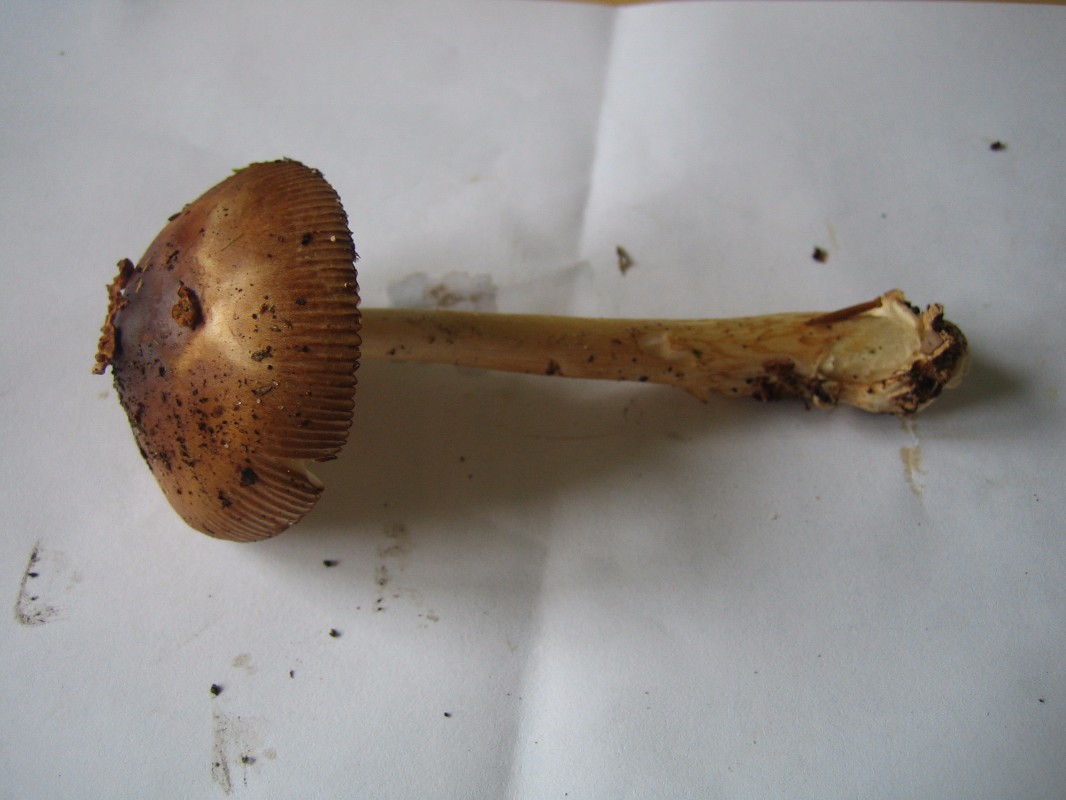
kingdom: Fungi
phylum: Basidiomycota
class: Agaricomycetes
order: Agaricales
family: Amanitaceae
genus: Amanita
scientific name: Amanita fulva
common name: brun kam-fluesvamp
